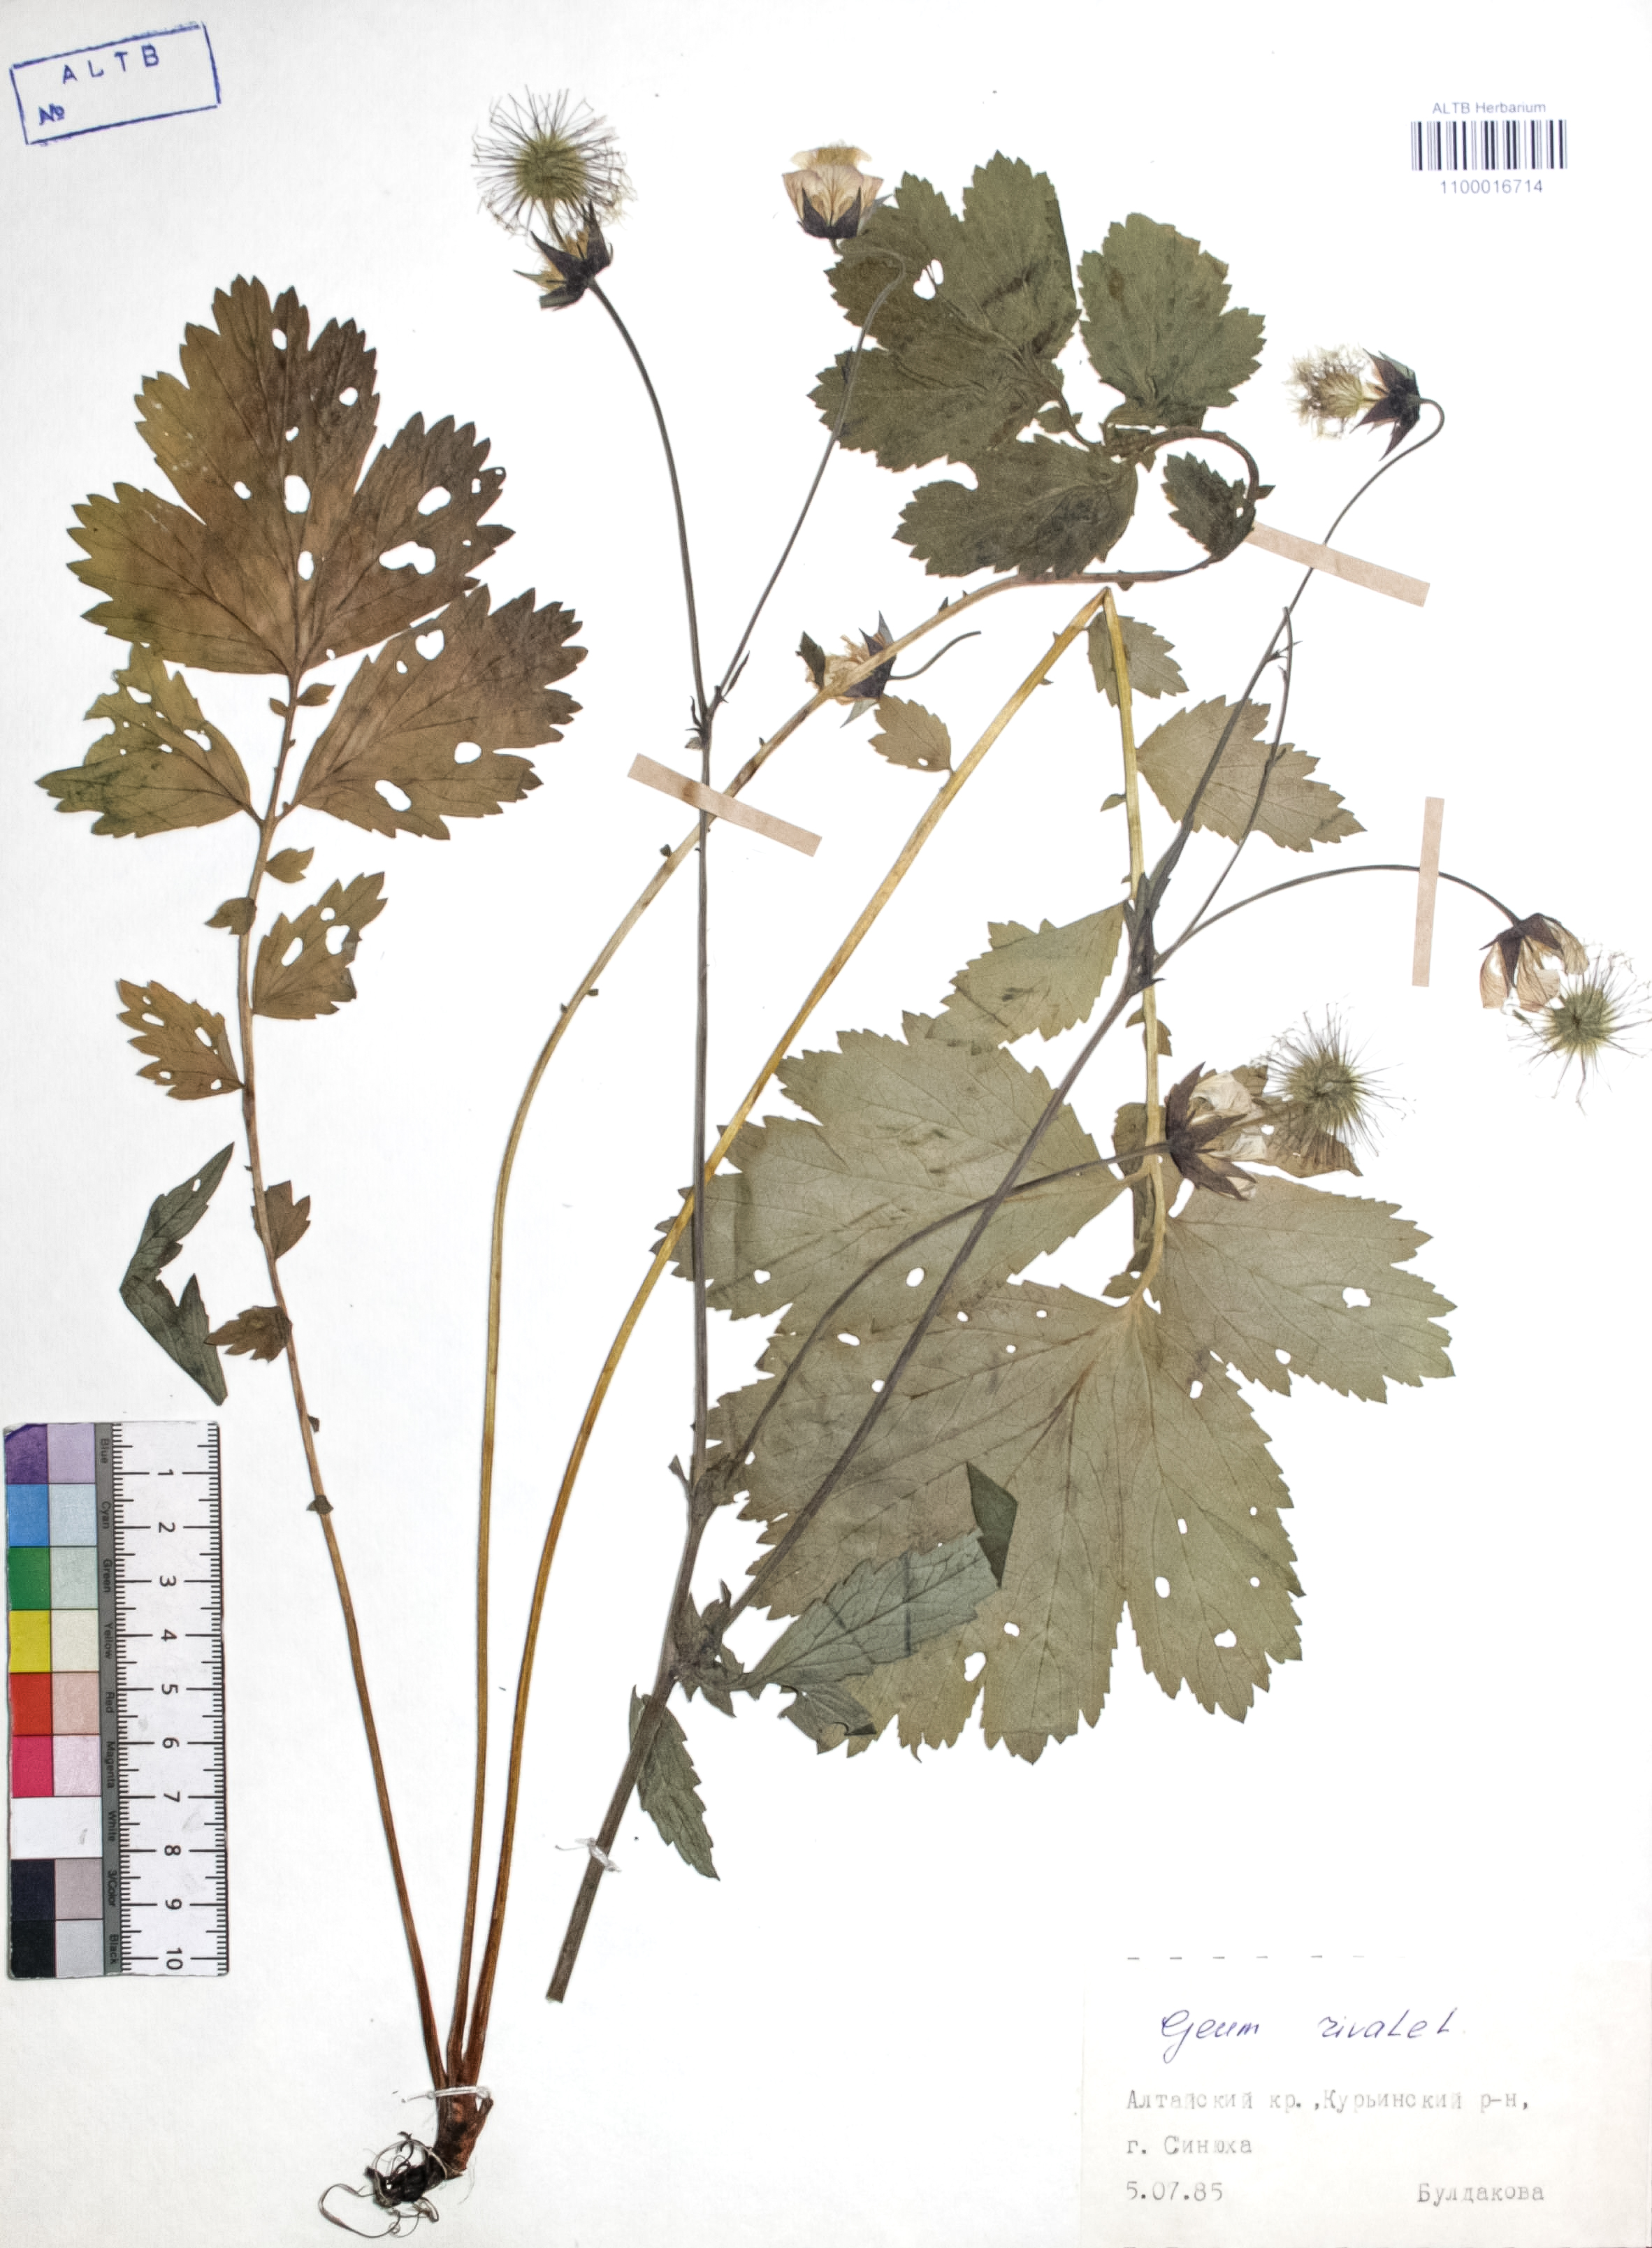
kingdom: Plantae
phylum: Tracheophyta
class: Magnoliopsida
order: Rosales
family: Rosaceae
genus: Geum
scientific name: Geum rivale
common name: Water avens
